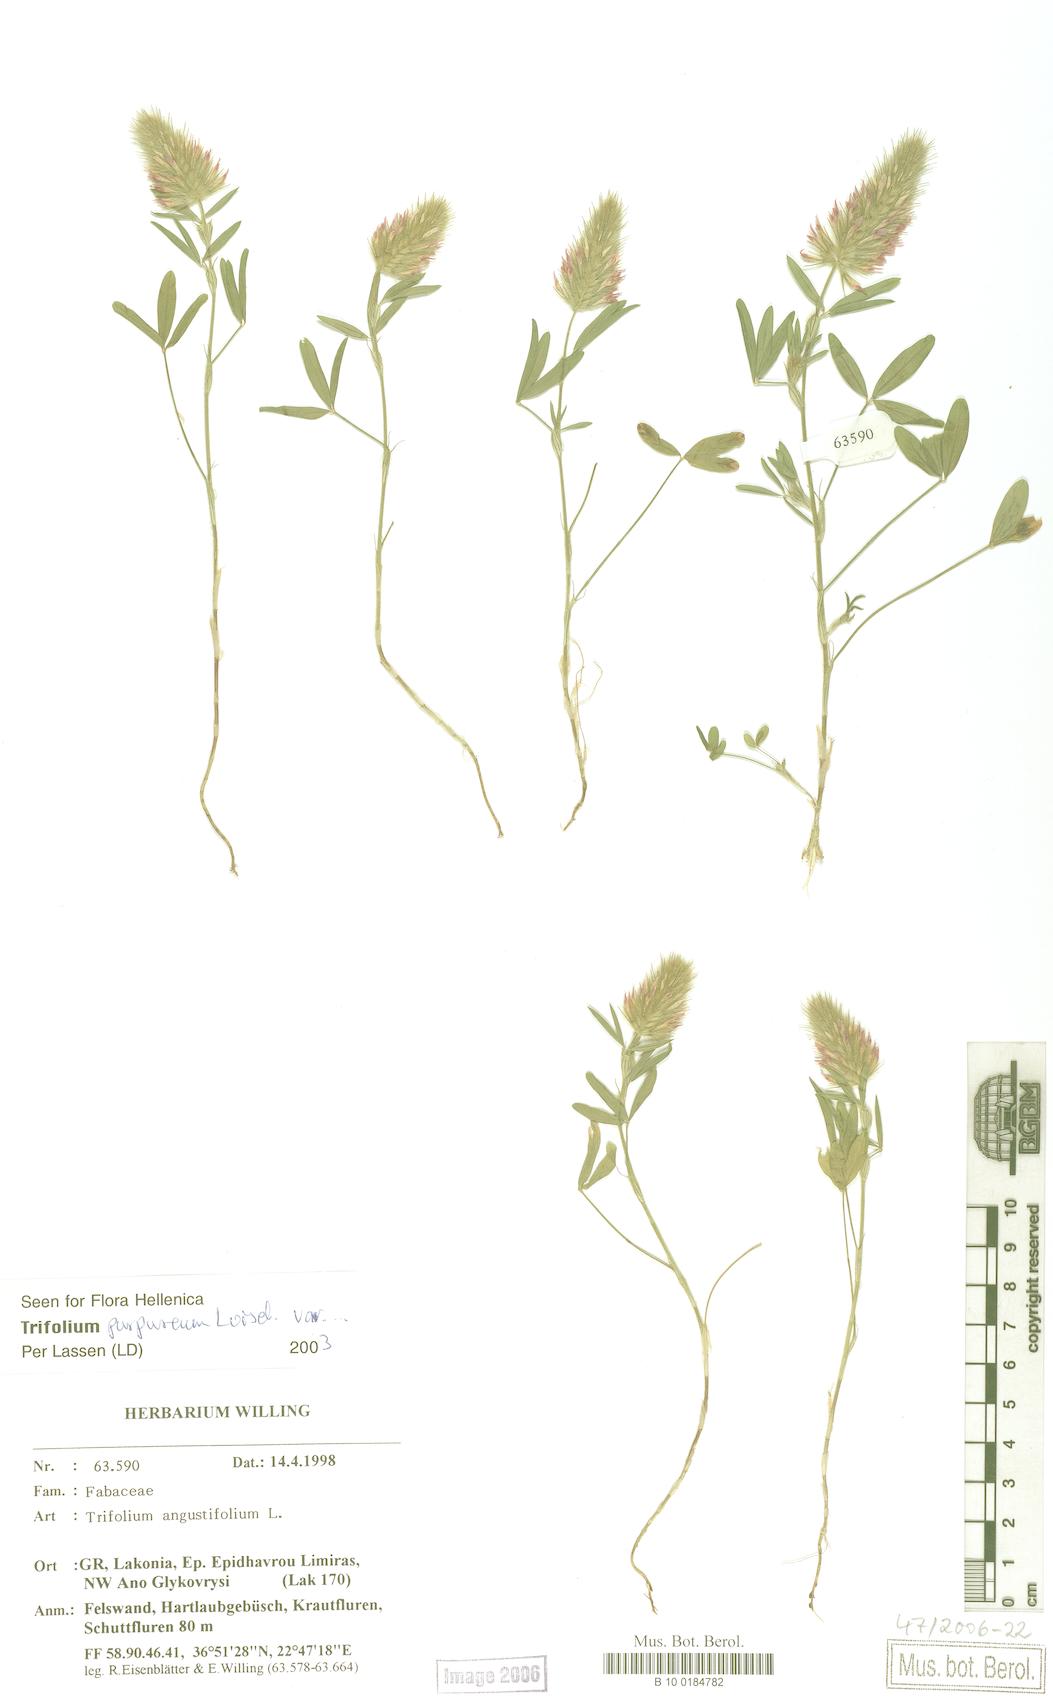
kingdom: Plantae
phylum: Tracheophyta
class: Magnoliopsida
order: Fabales
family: Fabaceae
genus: Trifolium
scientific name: Trifolium purpureum
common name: Purple clover
